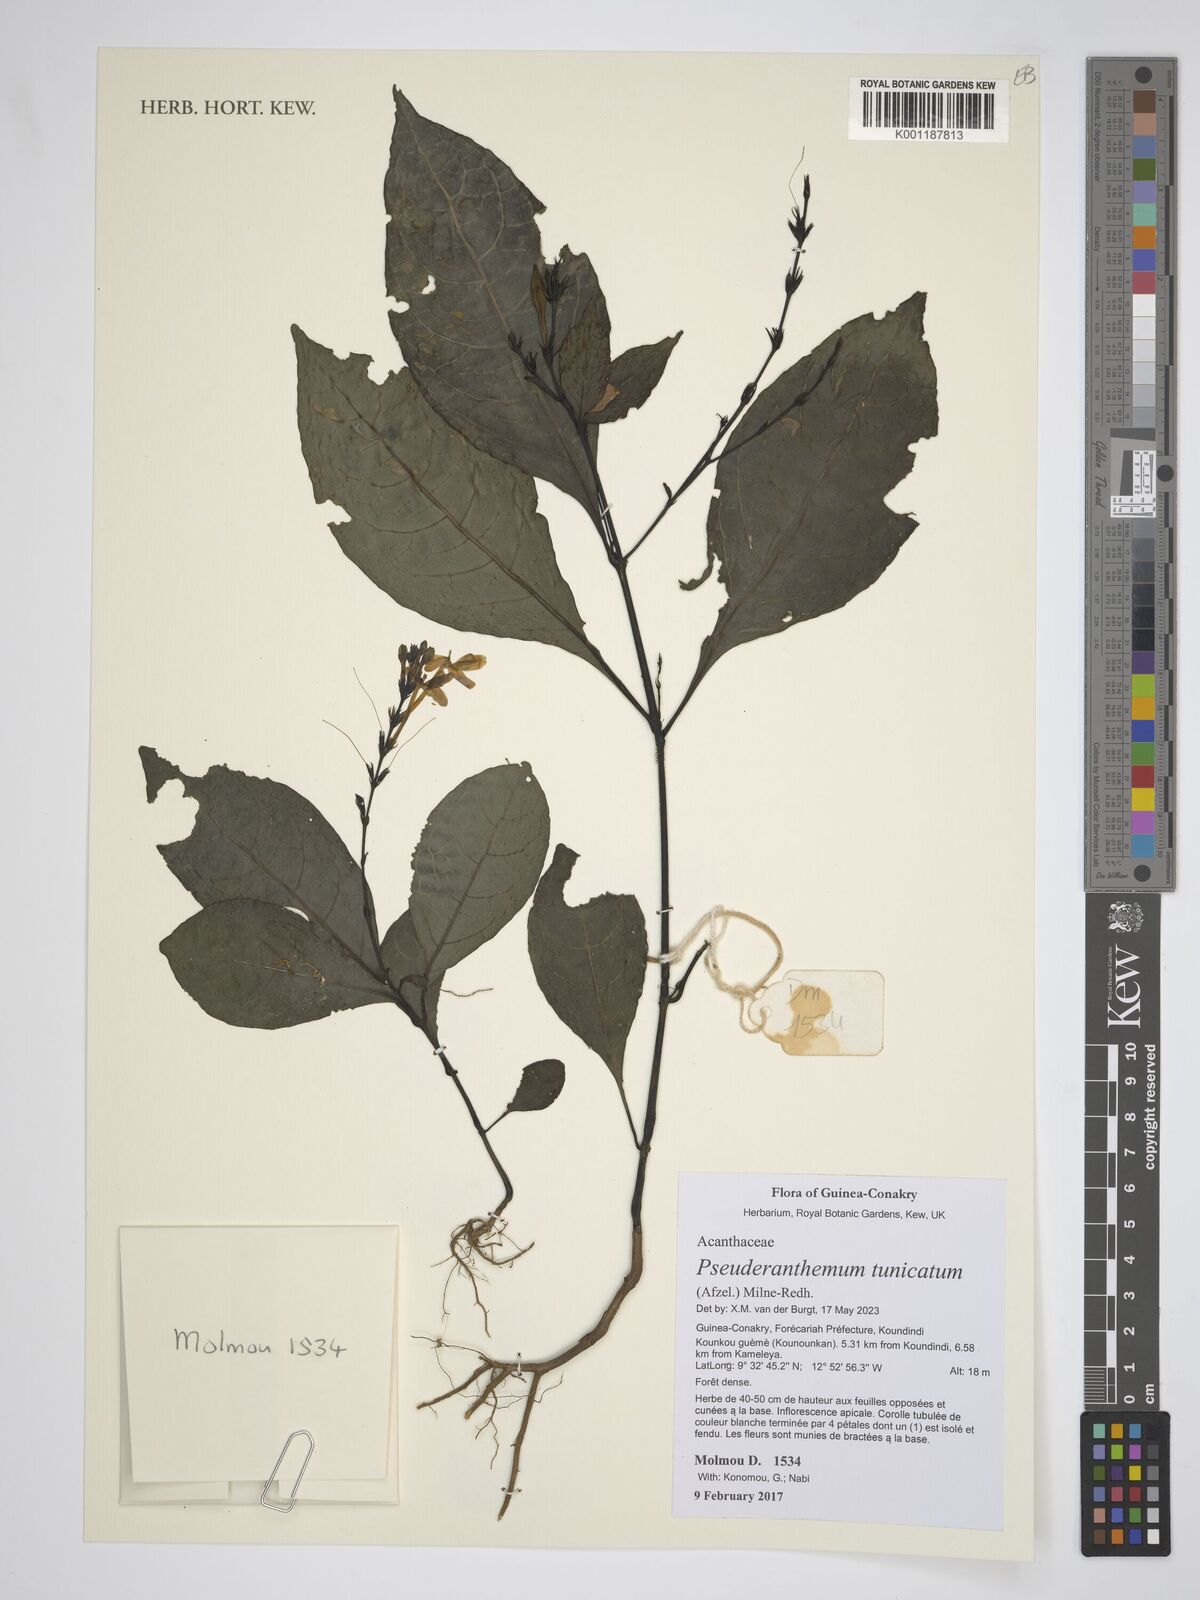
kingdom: Plantae
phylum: Tracheophyta
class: Magnoliopsida
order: Lamiales
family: Acanthaceae
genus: Pseuderanthemum
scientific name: Pseuderanthemum tunicatum
